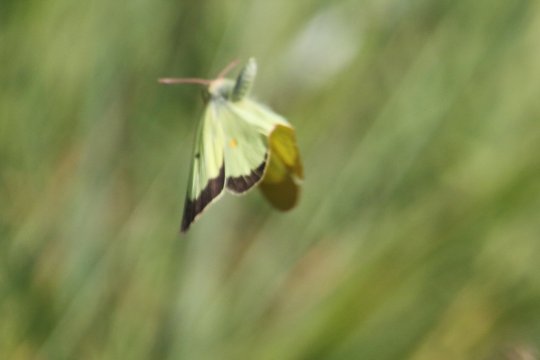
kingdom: Animalia
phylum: Arthropoda
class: Insecta
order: Lepidoptera
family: Pieridae
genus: Colias
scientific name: Colias philodice
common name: Clouded Sulphur
